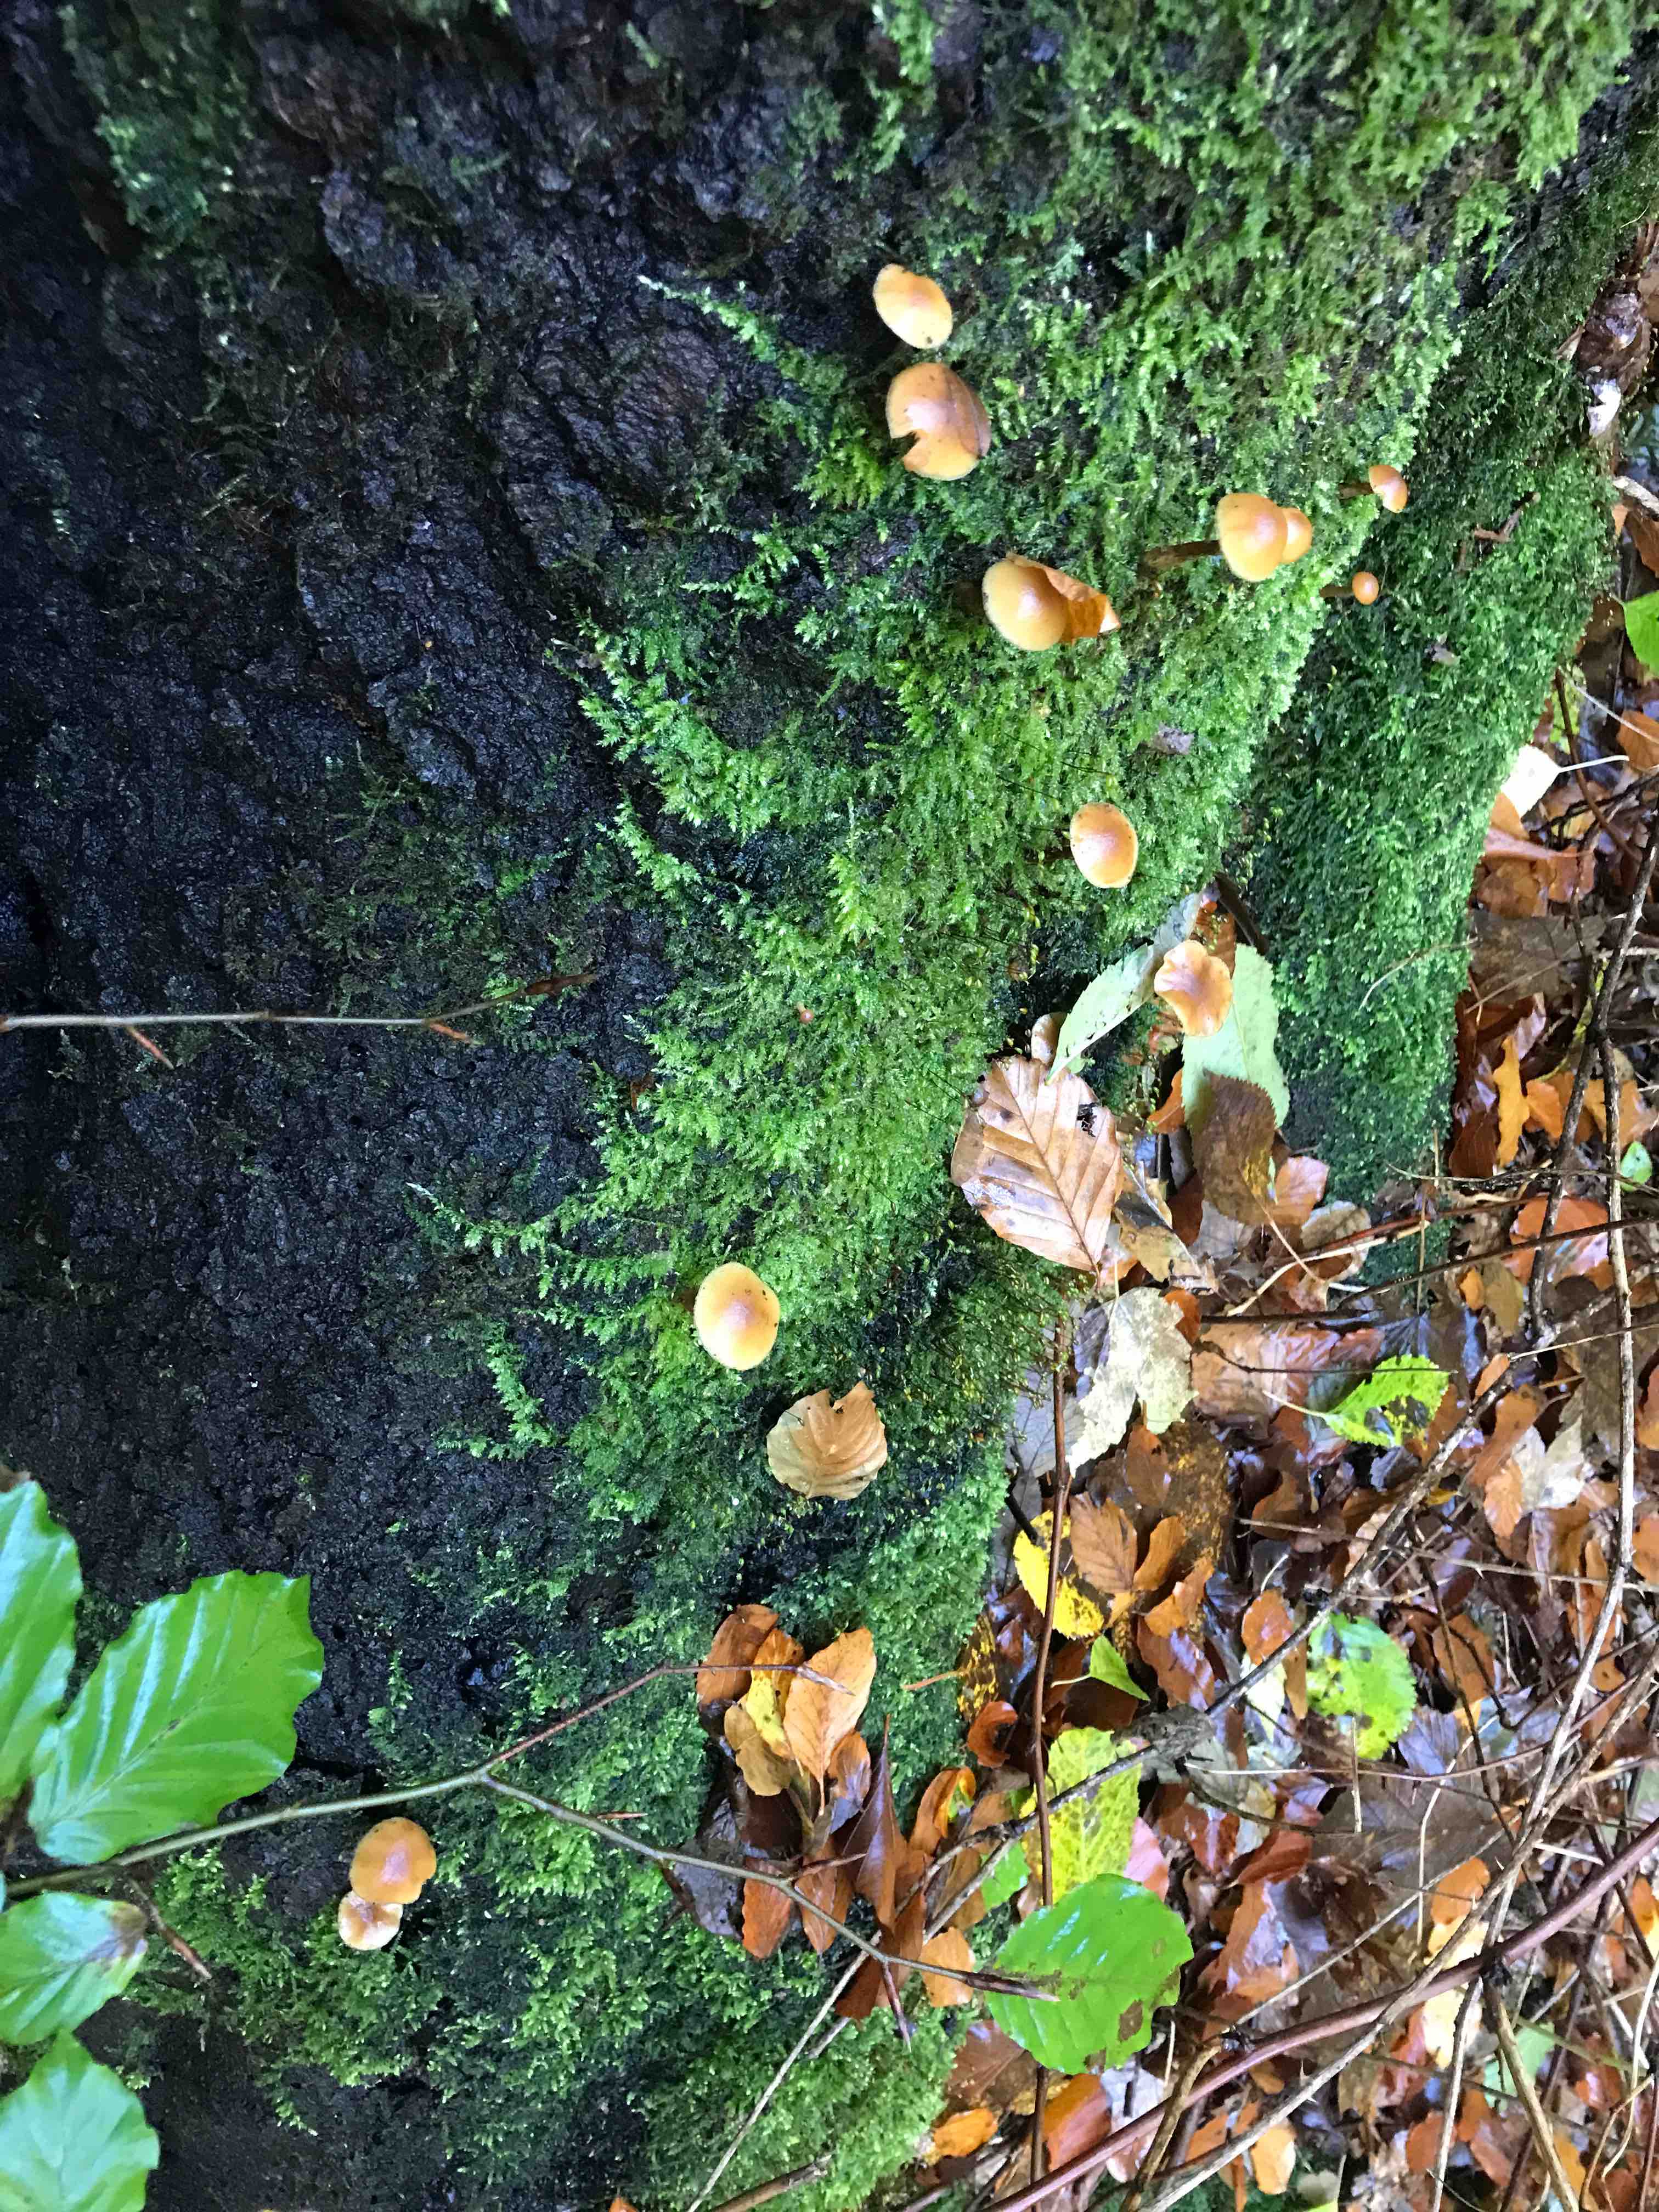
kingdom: Fungi
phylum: Basidiomycota
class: Agaricomycetes
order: Agaricales
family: Hymenogastraceae
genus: Galerina
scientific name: Galerina marginata
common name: randbæltet hjelmhat
